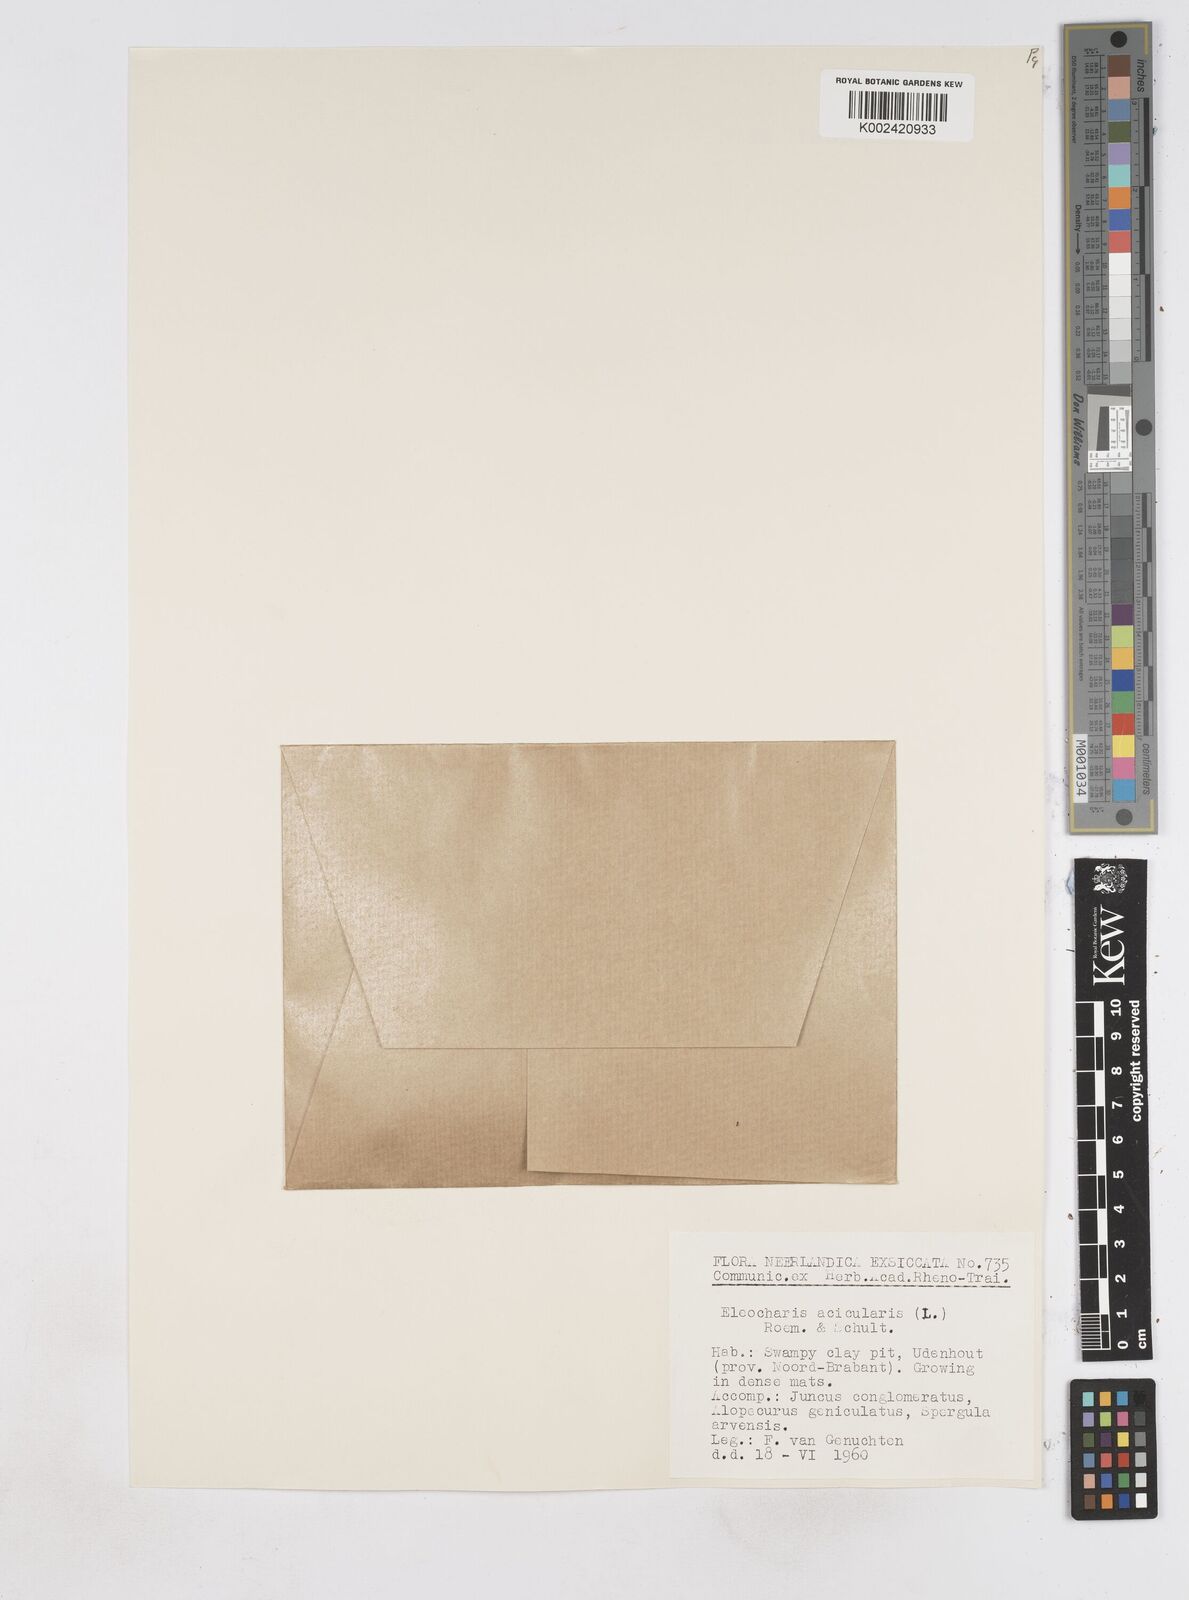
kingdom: Plantae
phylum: Tracheophyta
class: Liliopsida
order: Poales
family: Cyperaceae
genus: Eleocharis
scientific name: Eleocharis acicularis
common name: Needle spike-rush
